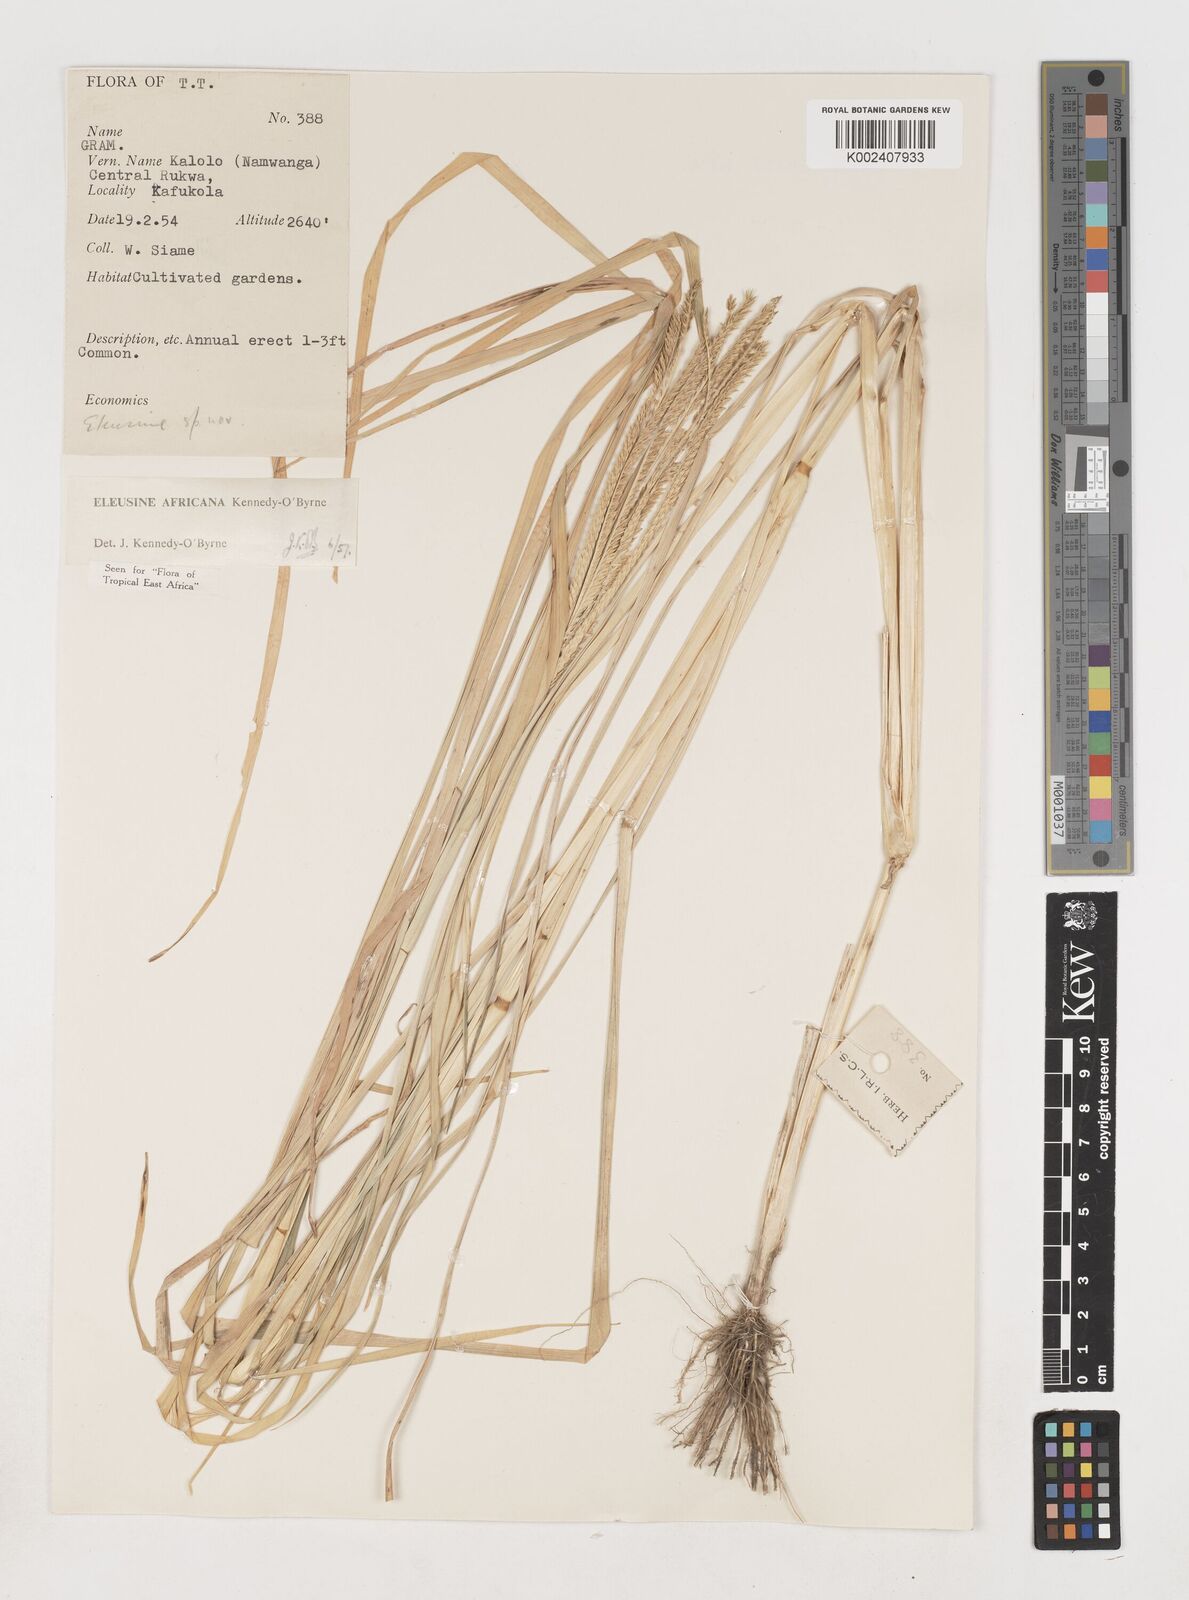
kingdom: Plantae
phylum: Tracheophyta
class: Liliopsida
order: Poales
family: Poaceae
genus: Eleusine
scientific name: Eleusine africana
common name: Wild african finger millet
